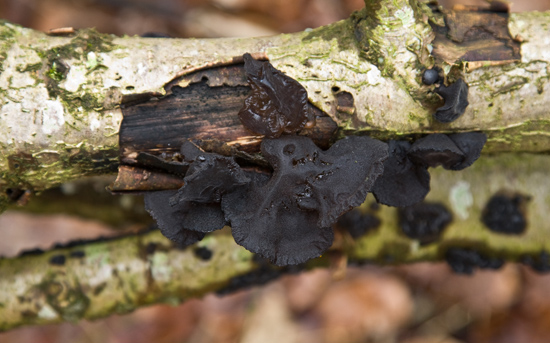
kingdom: Fungi
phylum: Basidiomycota
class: Agaricomycetes
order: Auriculariales
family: Auriculariaceae
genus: Exidia
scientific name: Exidia glandulosa
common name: ege-bævretop
